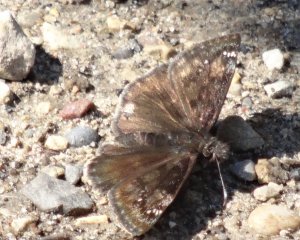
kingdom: Animalia
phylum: Arthropoda
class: Insecta
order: Lepidoptera
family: Hesperiidae
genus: Gesta
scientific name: Gesta
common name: Wild Indigo Duskywing
